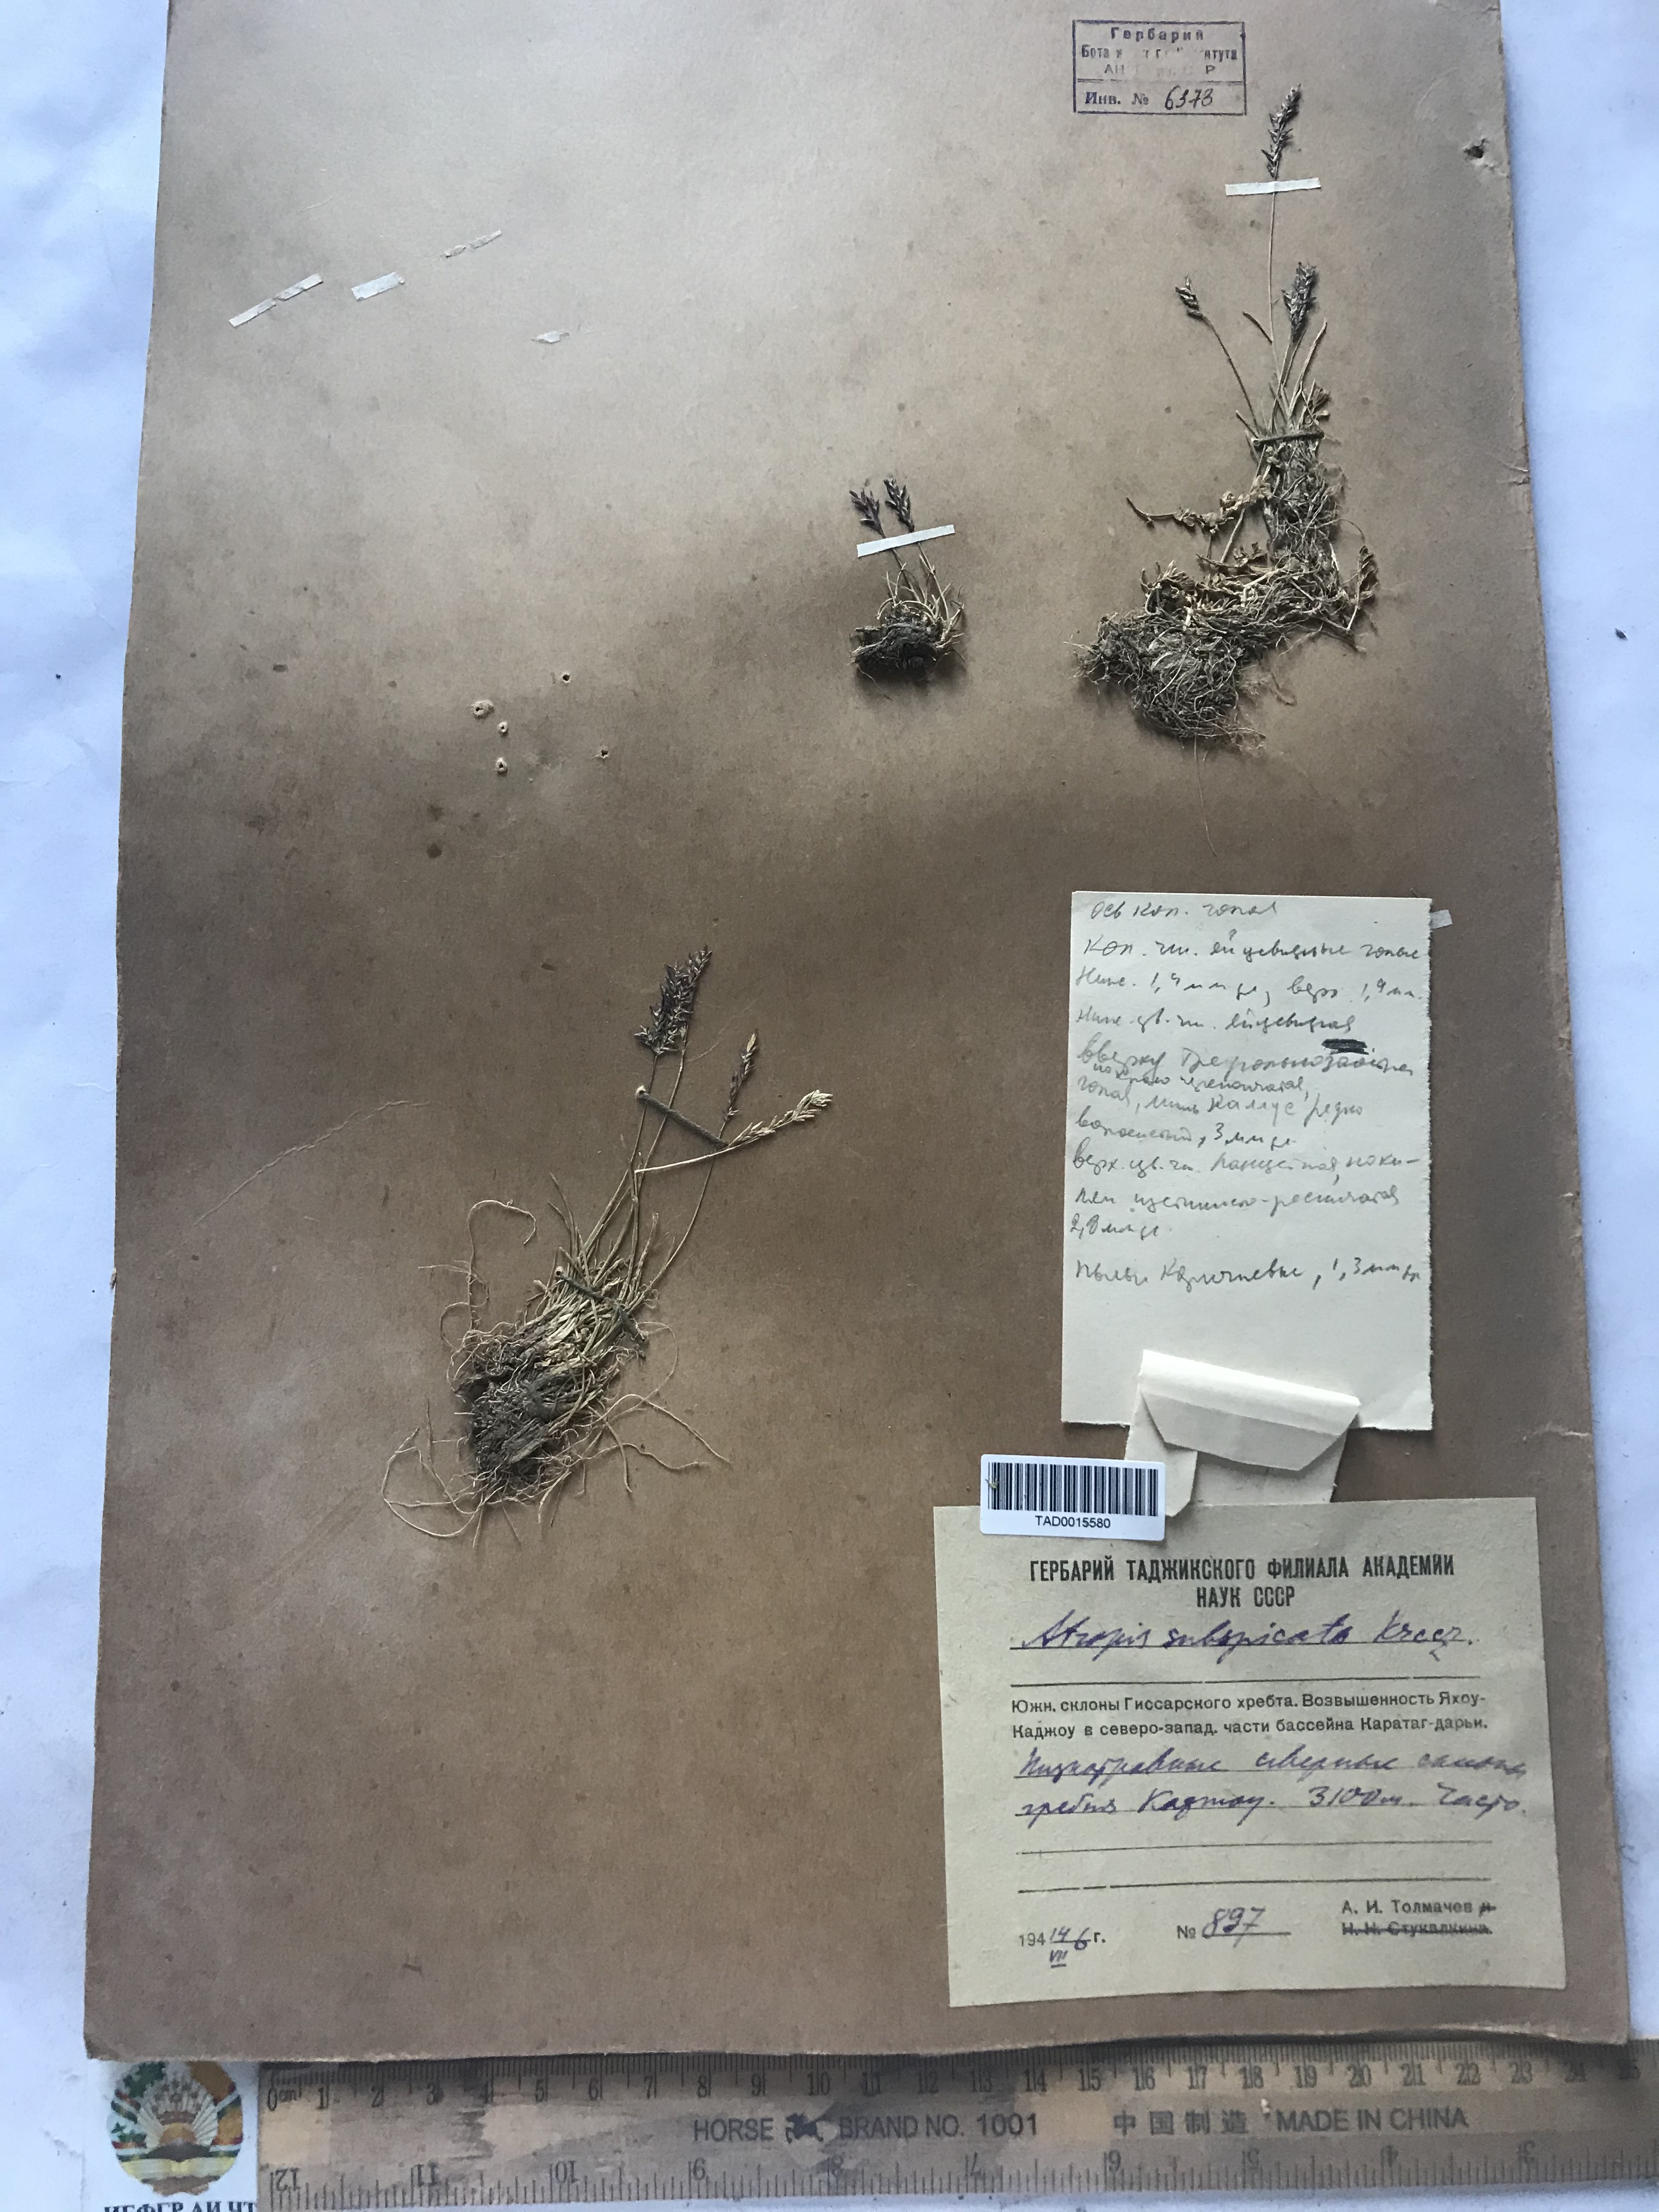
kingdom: Plantae
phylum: Tracheophyta
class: Liliopsida
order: Poales
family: Poaceae
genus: Puccinellia
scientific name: Puccinellia subspicata
